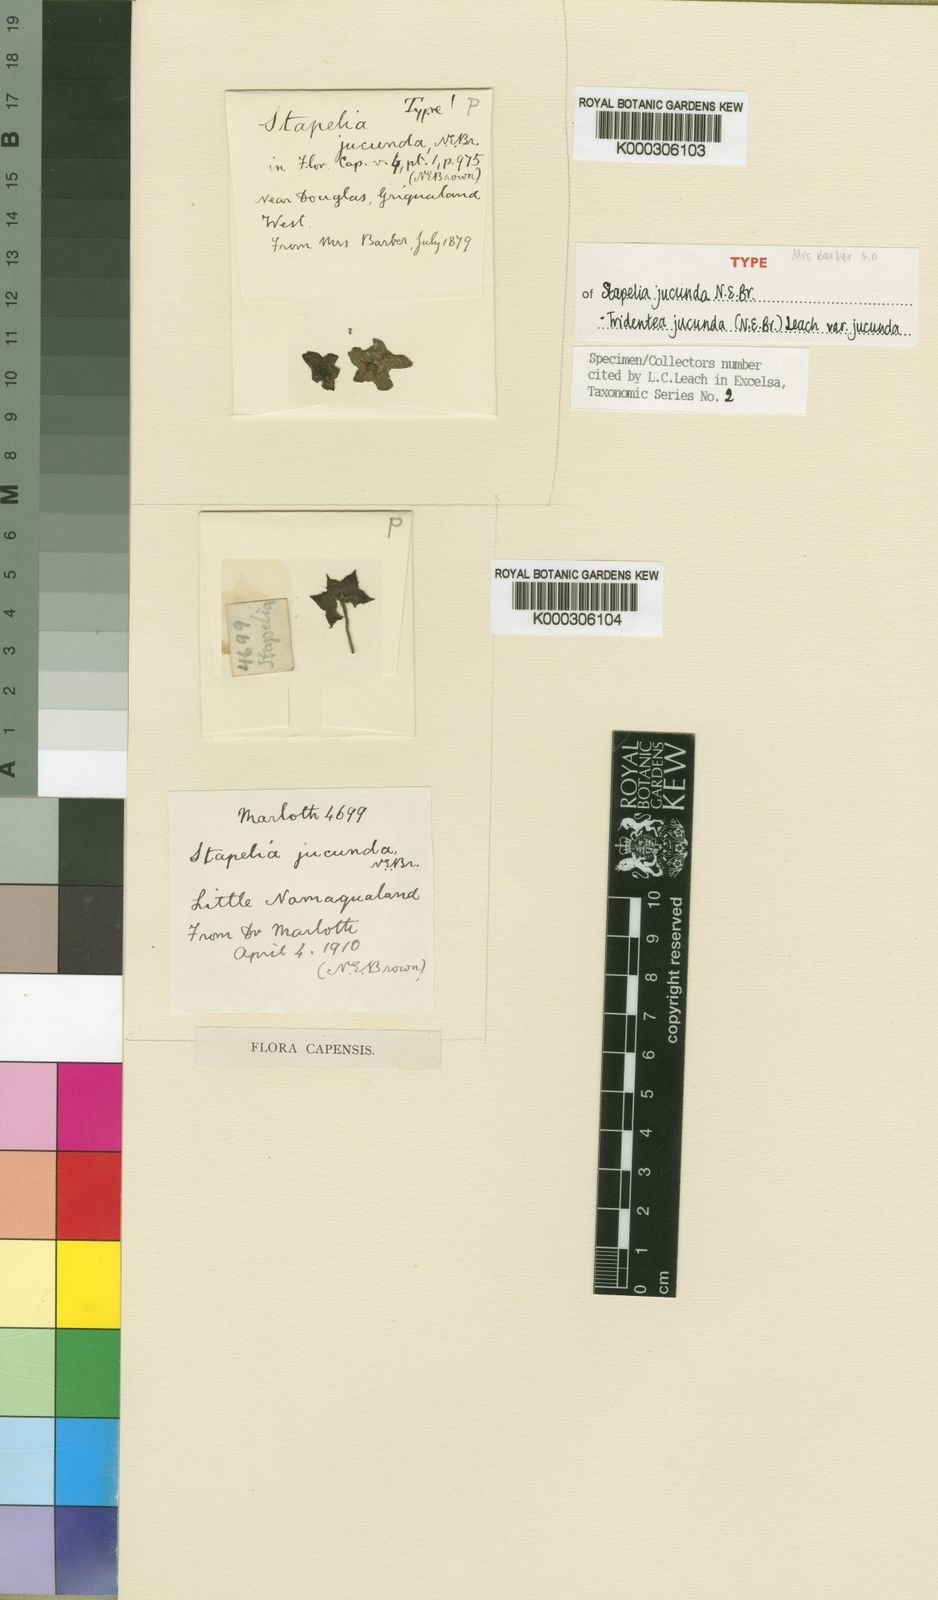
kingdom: Plantae
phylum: Tracheophyta
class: Magnoliopsida
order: Gentianales
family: Apocynaceae
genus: Ceropegia
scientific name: Ceropegia ausana
